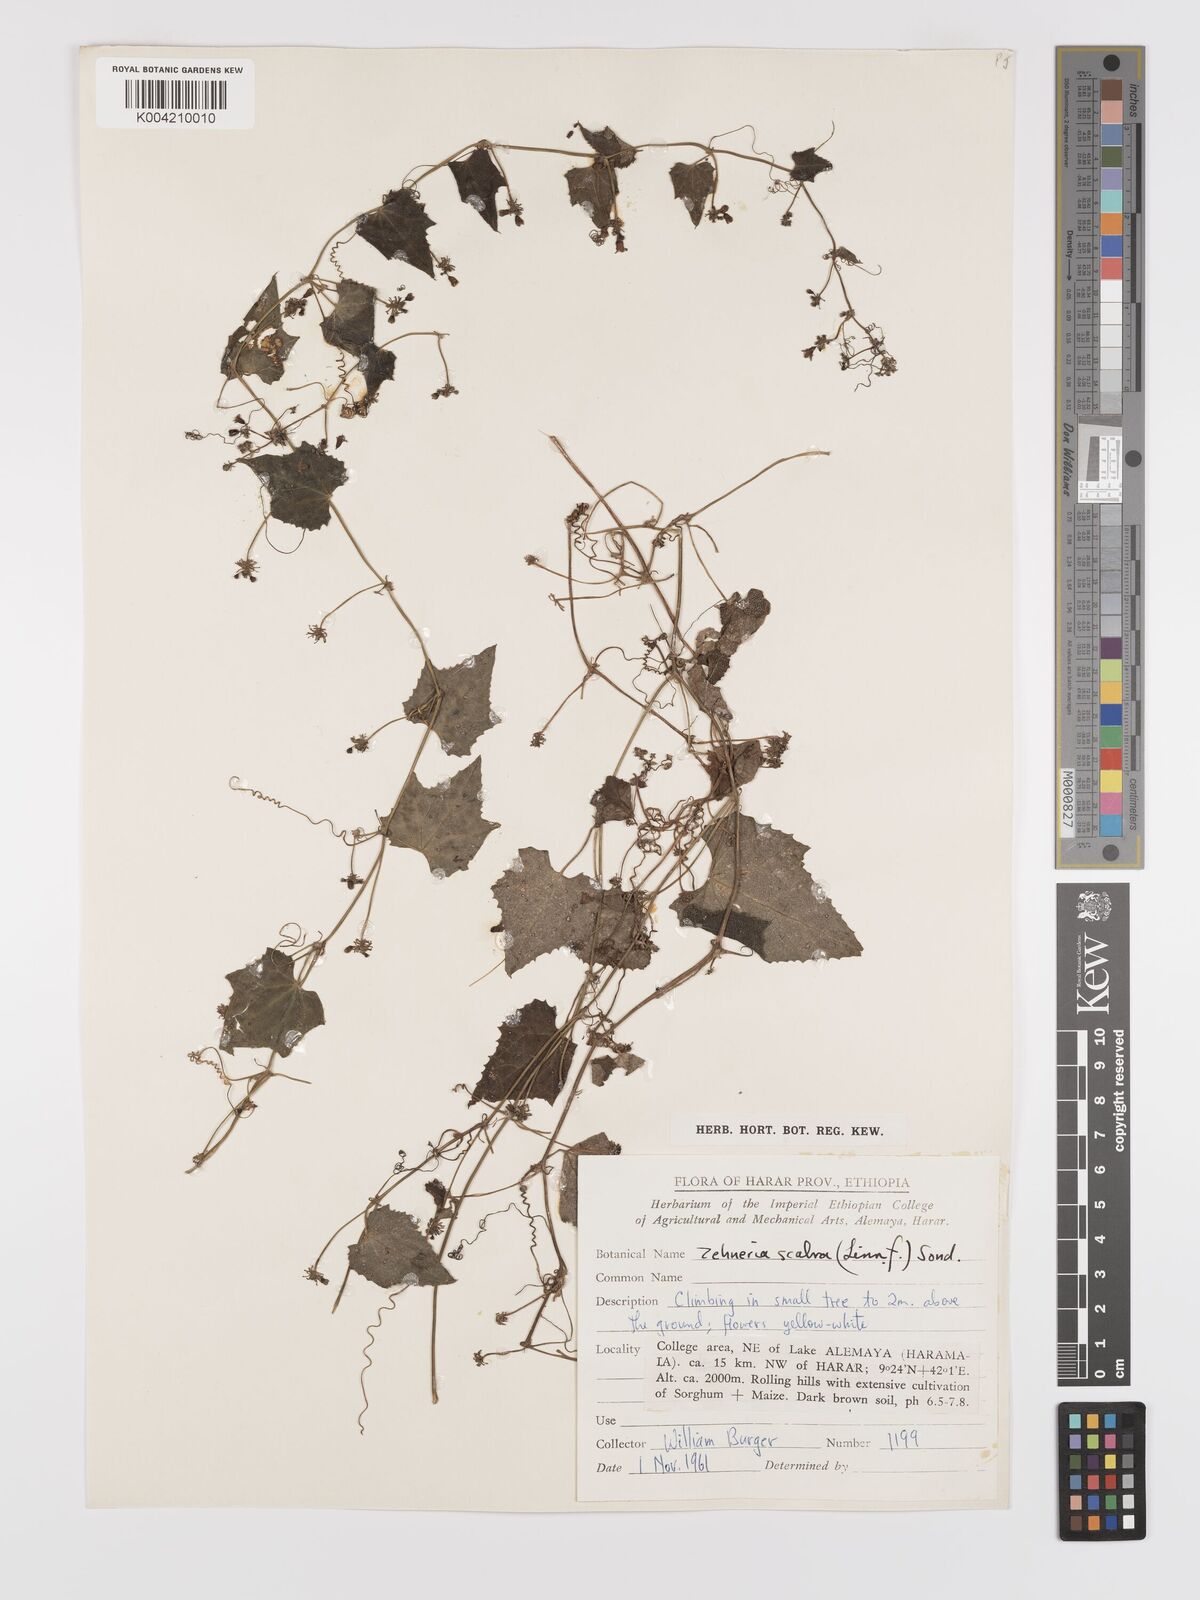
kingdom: Plantae
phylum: Tracheophyta
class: Magnoliopsida
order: Cucurbitales
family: Cucurbitaceae
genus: Zehneria
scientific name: Zehneria scabra
